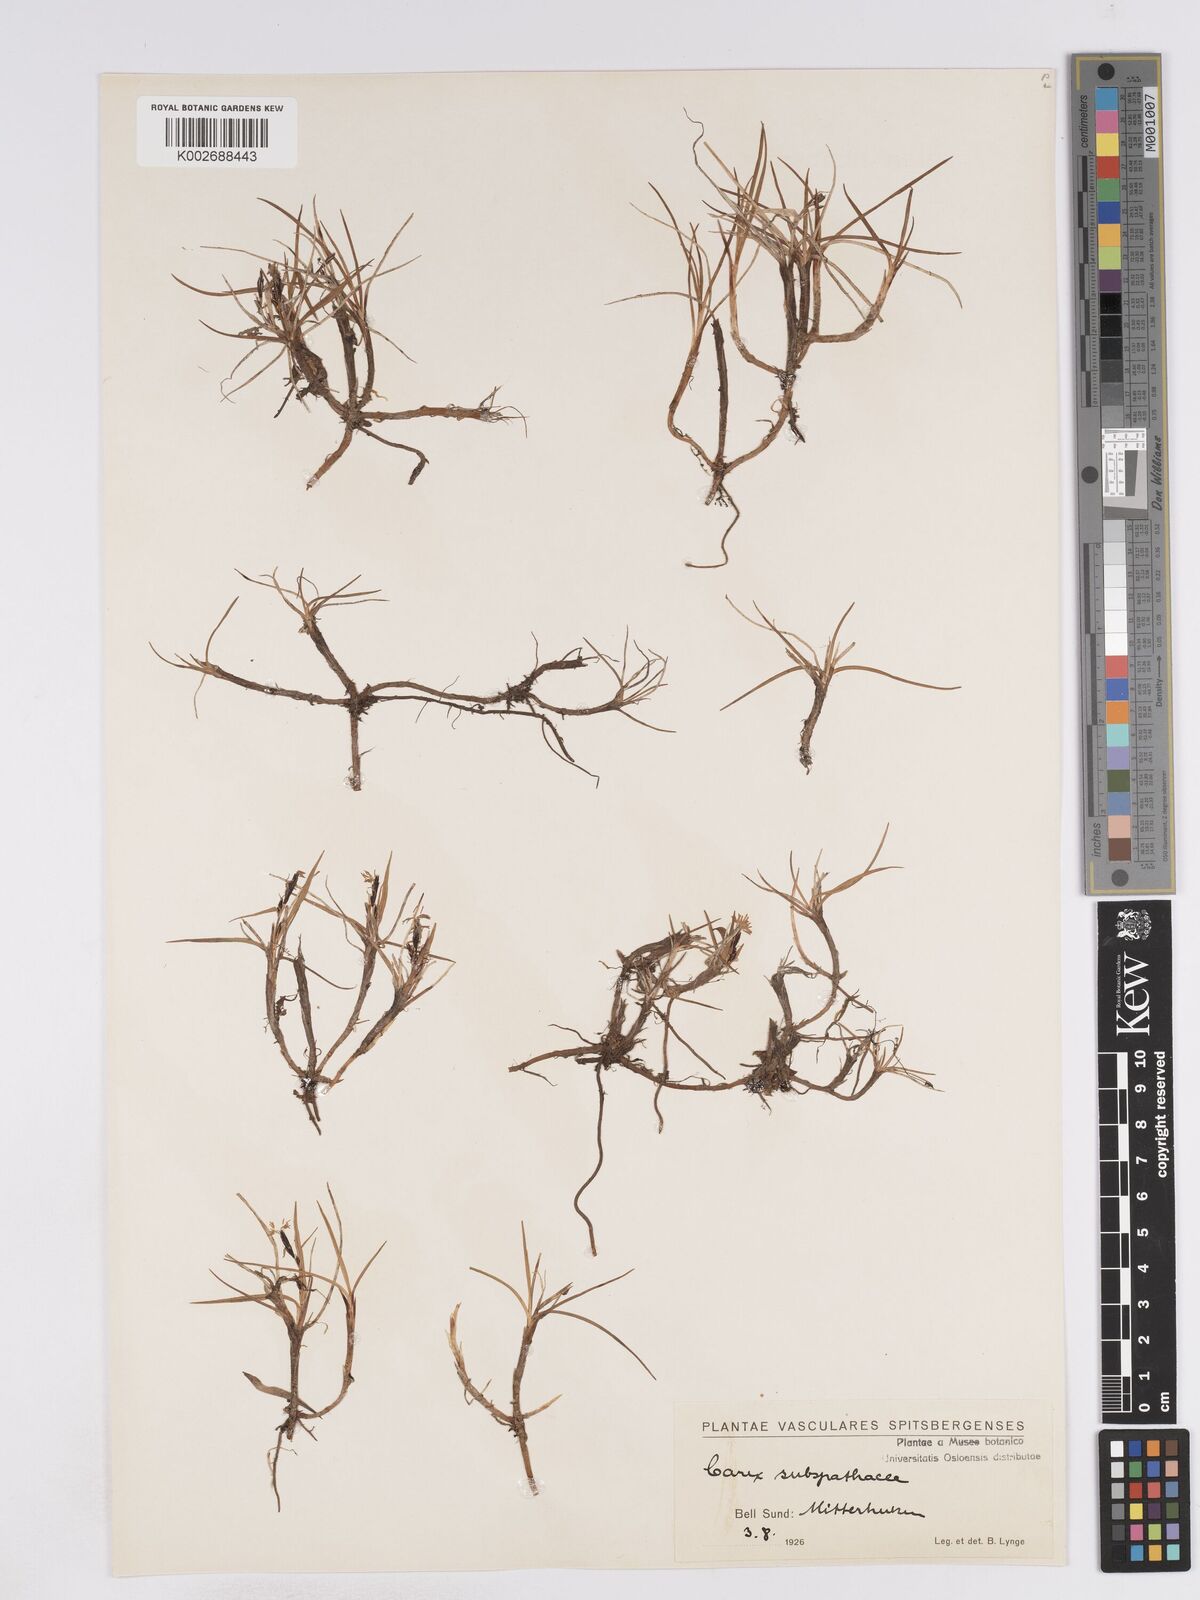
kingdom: Plantae
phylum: Tracheophyta
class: Liliopsida
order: Poales
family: Cyperaceae
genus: Carex
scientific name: Carex subspathacea
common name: Hoppner's sedge
